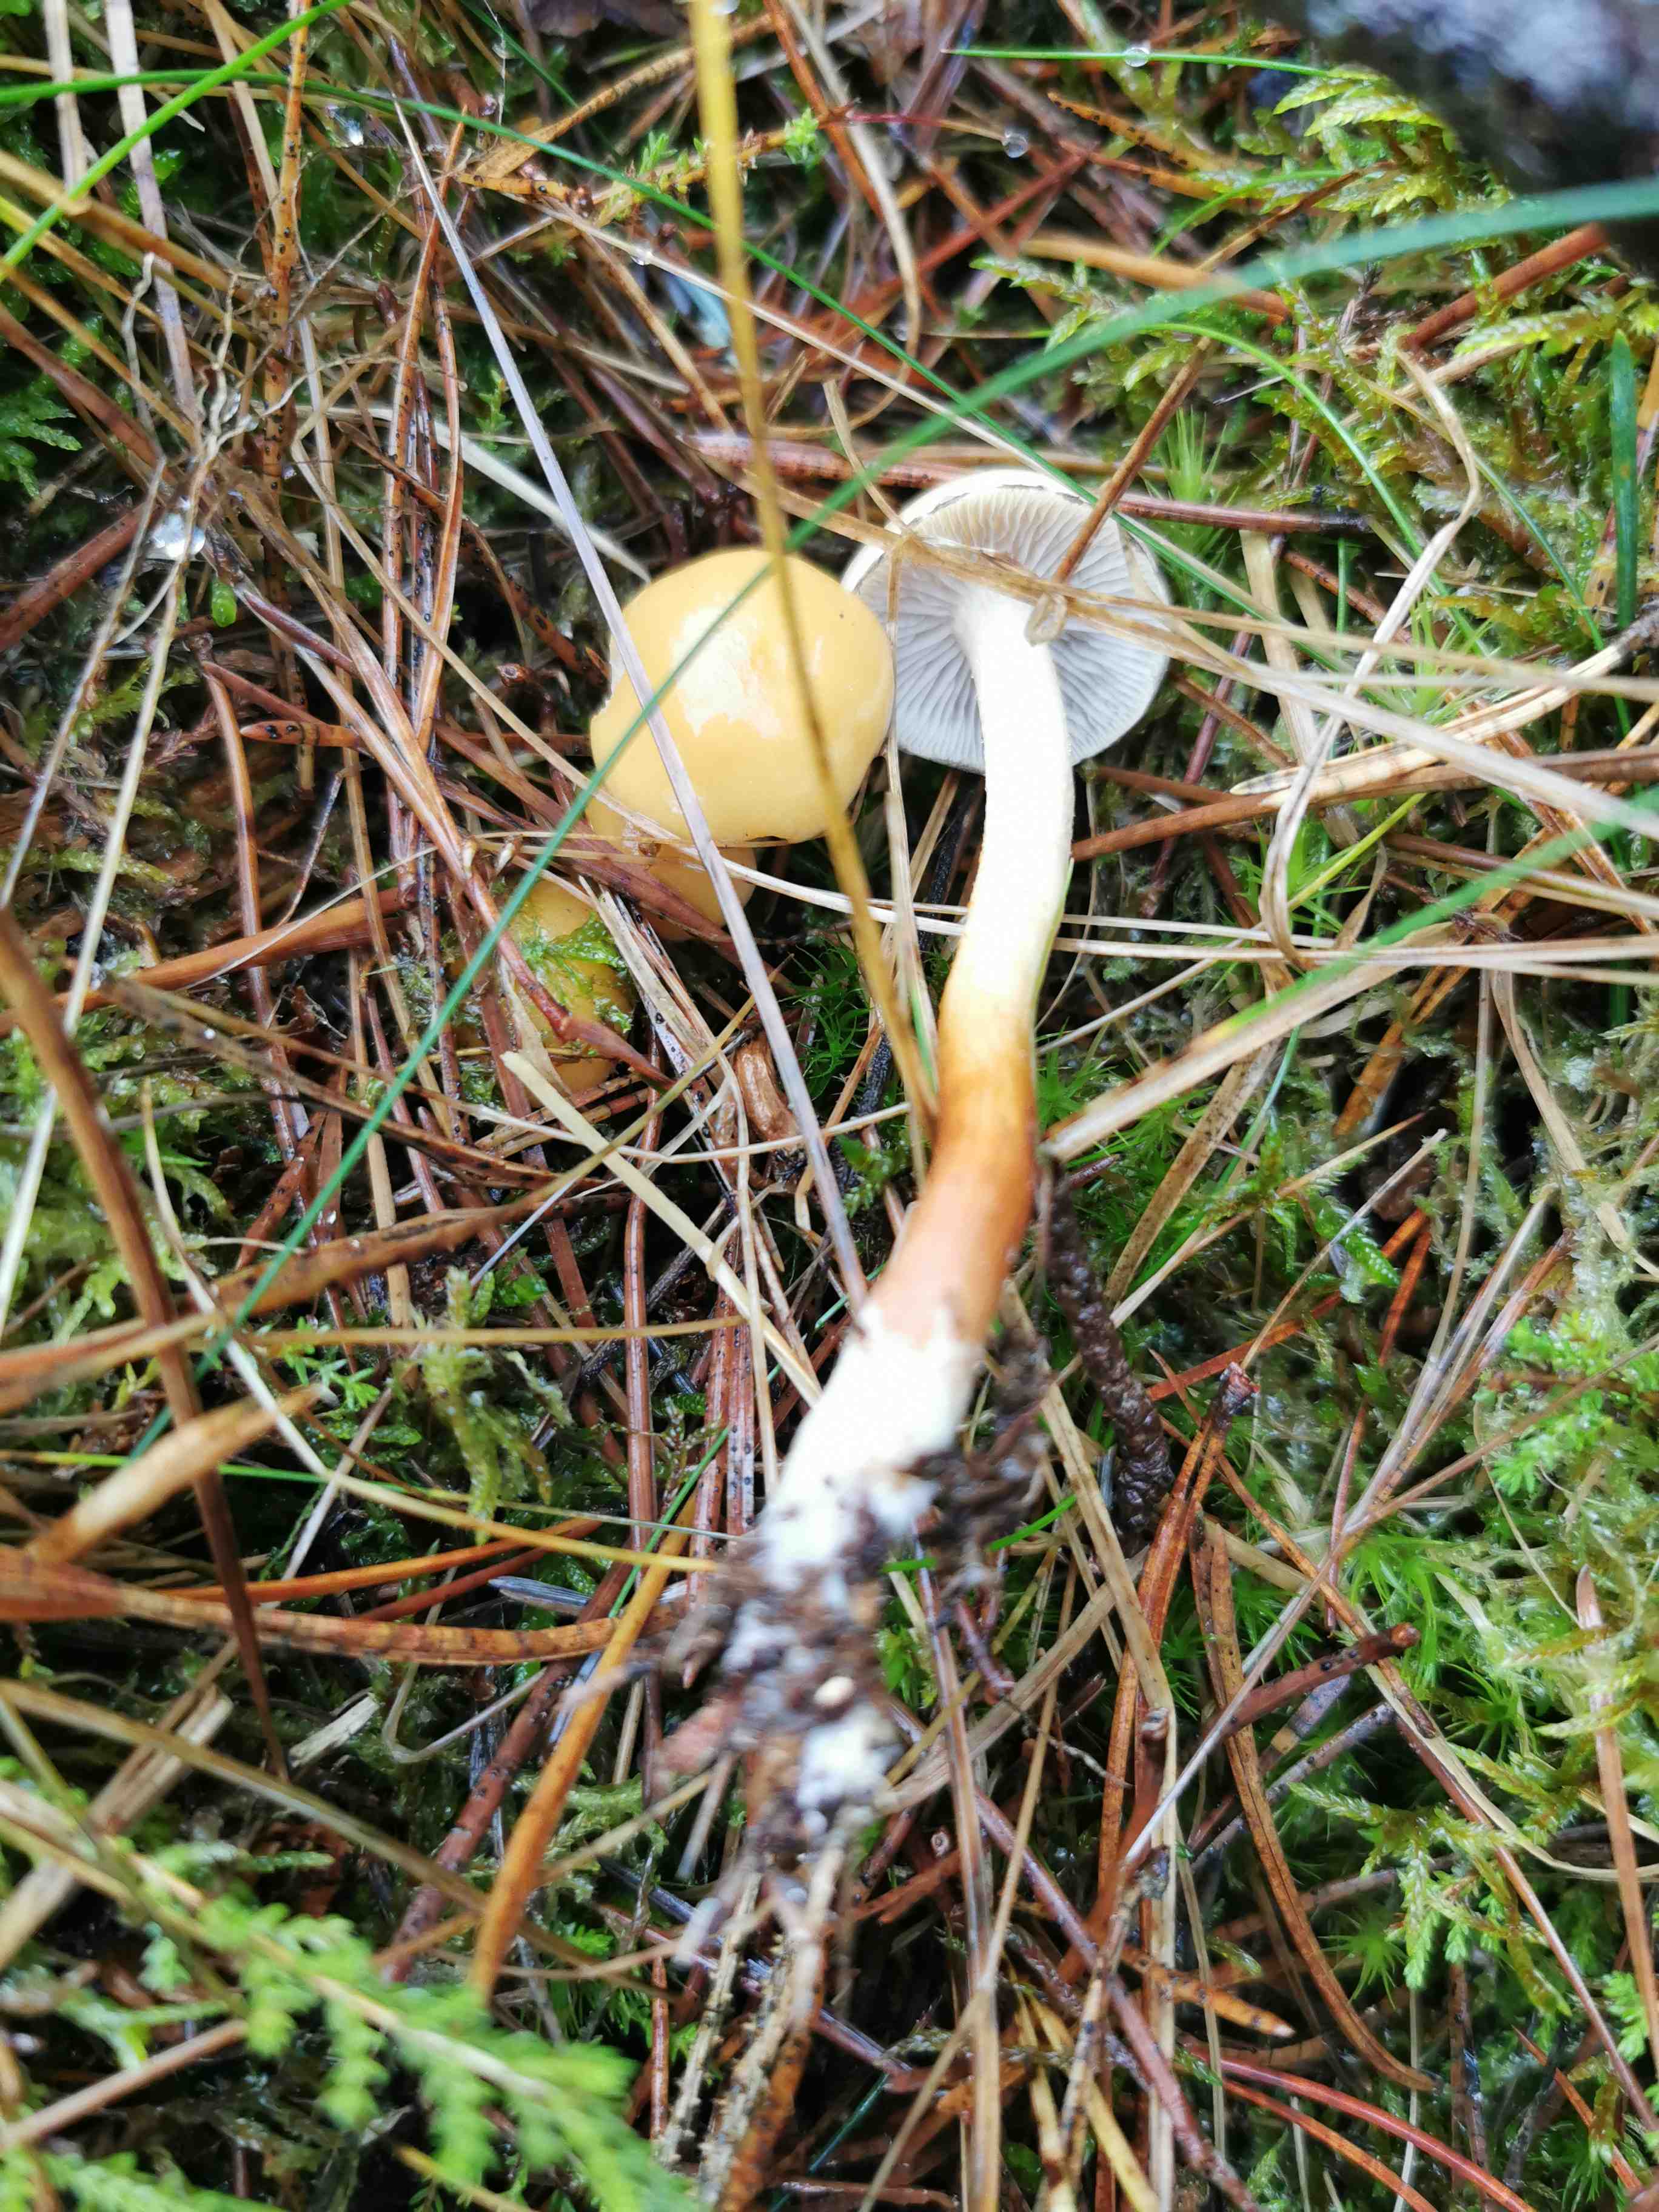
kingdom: Fungi
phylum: Basidiomycota
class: Agaricomycetes
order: Agaricales
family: Strophariaceae
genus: Hypholoma
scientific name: Hypholoma capnoides
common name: gran-svovlhat
